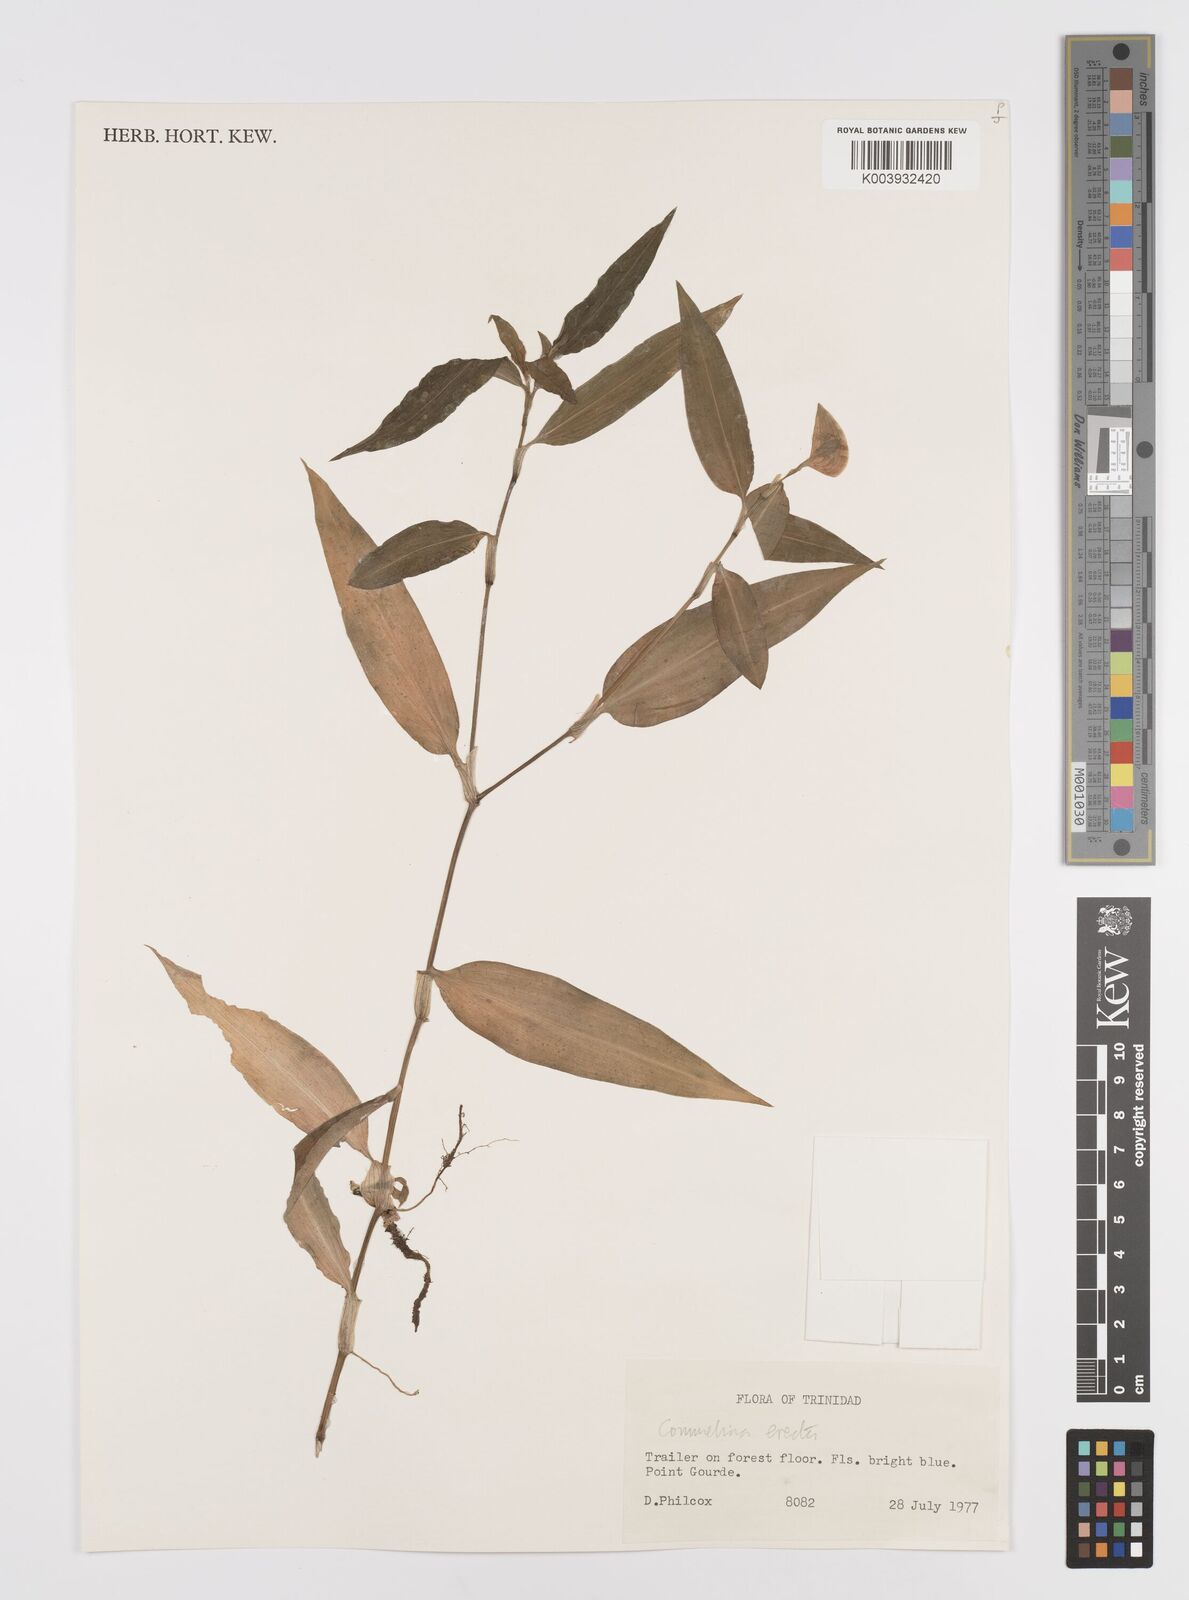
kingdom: Plantae
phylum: Tracheophyta
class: Liliopsida
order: Commelinales
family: Commelinaceae
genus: Commelina
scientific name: Commelina erecta
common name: Blousel blommetjie
